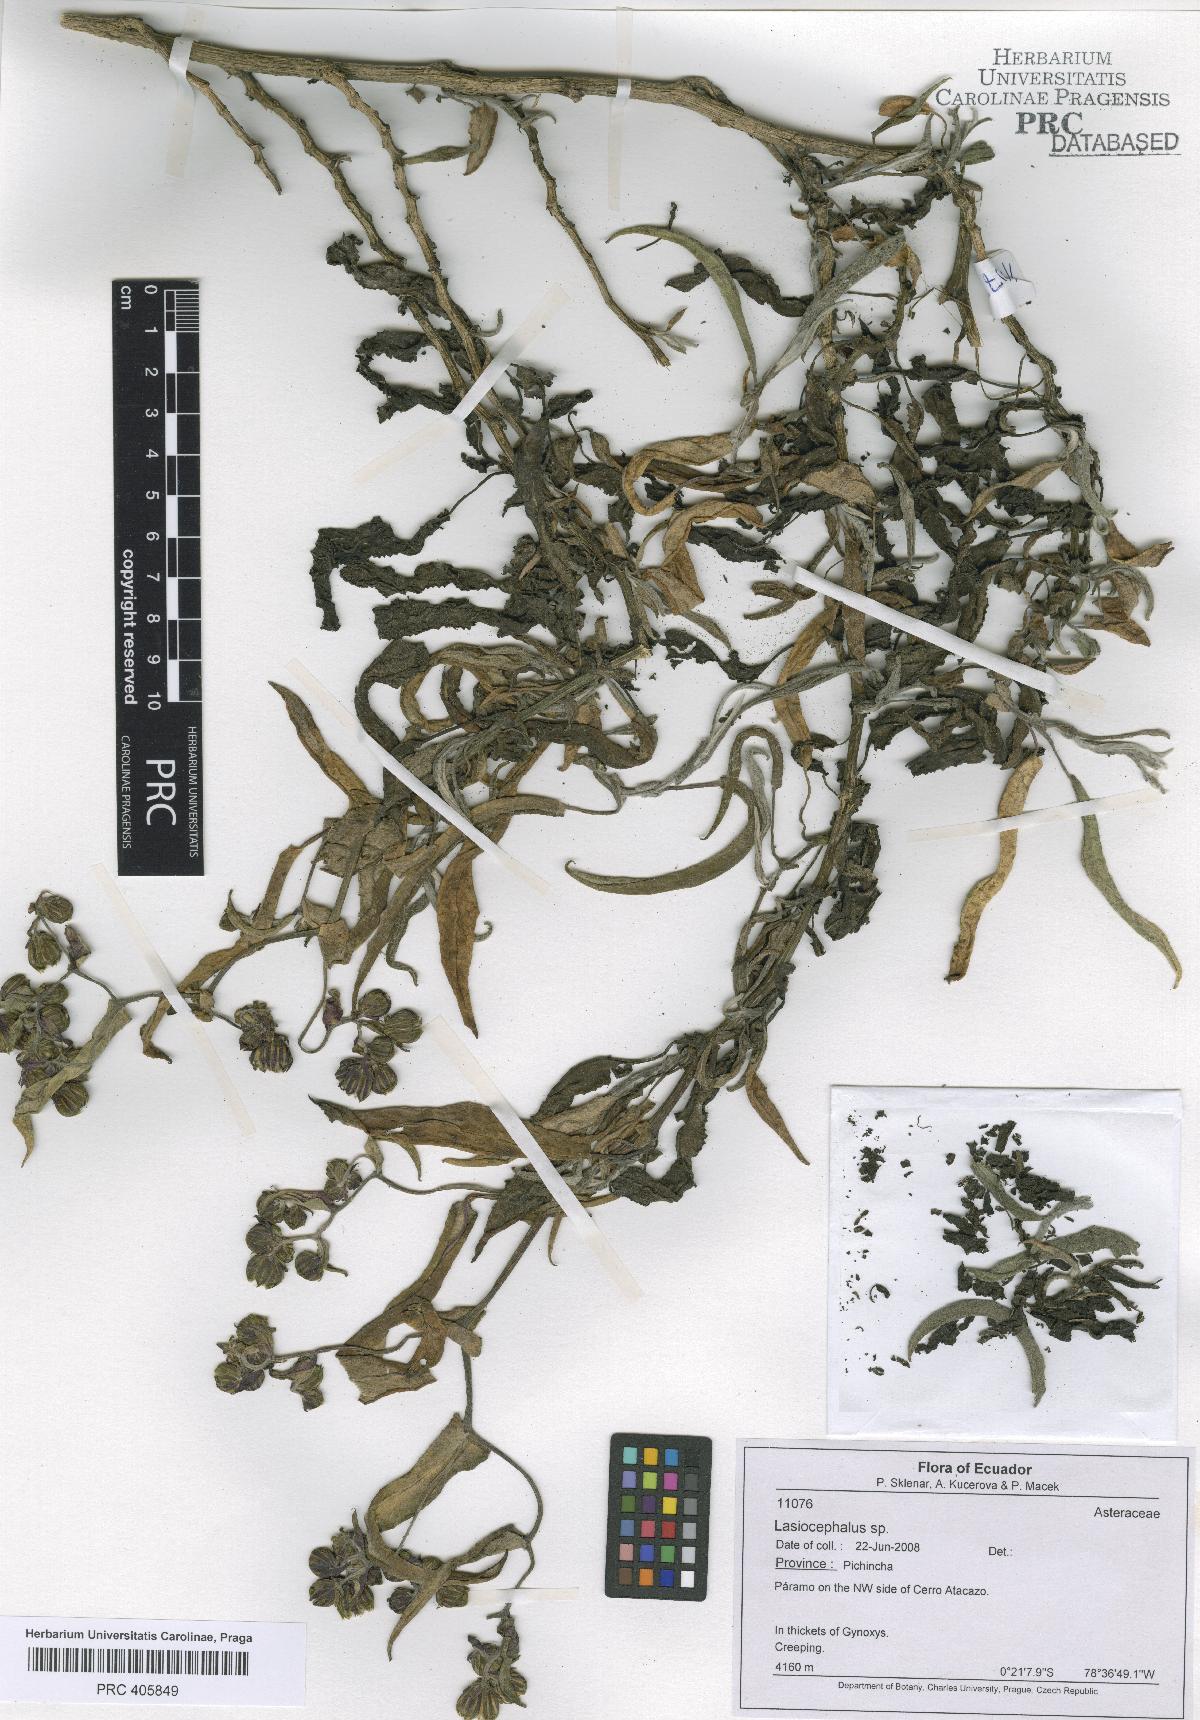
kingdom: Plantae
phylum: Tracheophyta
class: Magnoliopsida
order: Asterales
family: Asteraceae
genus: Lasiocephalus
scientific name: Lasiocephalus
